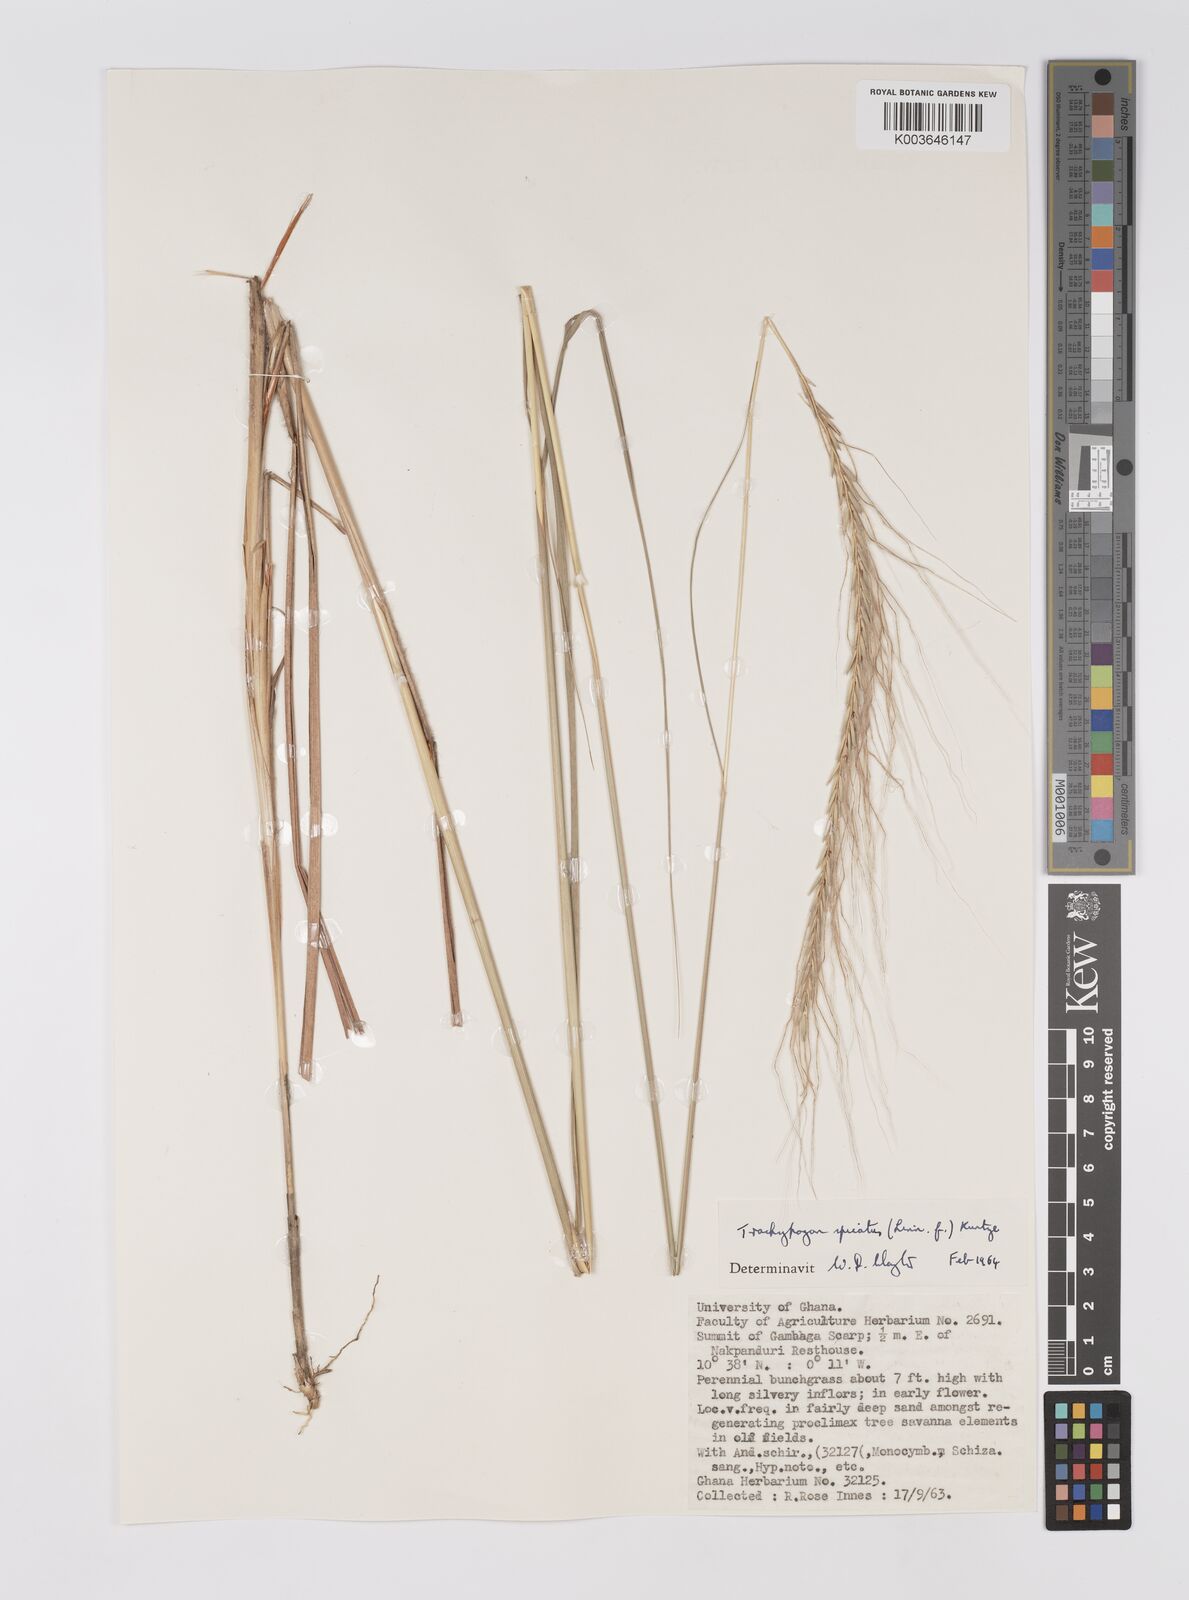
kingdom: Plantae
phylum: Tracheophyta
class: Liliopsida
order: Poales
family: Poaceae
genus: Trachypogon
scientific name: Trachypogon spicatus
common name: Crinkle-awn
